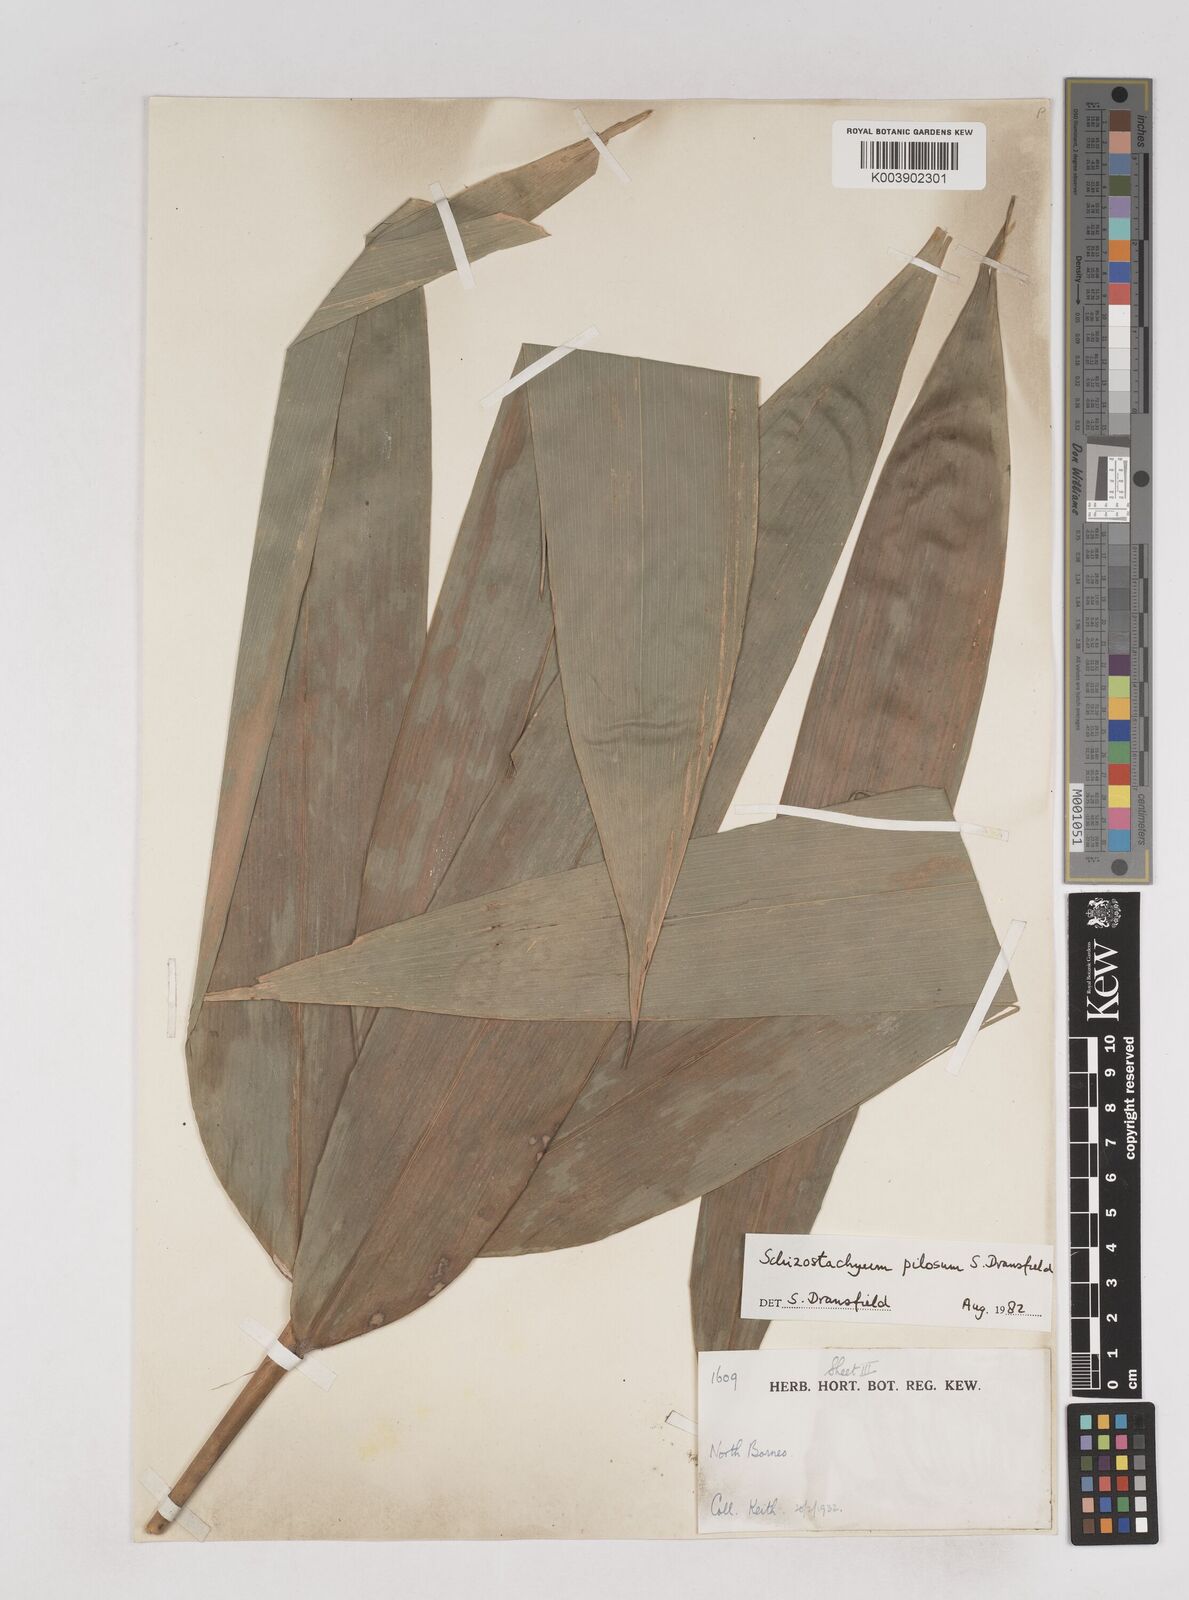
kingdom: Plantae
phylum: Tracheophyta
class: Liliopsida
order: Poales
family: Poaceae
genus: Schizostachyum
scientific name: Schizostachyum pilosum
